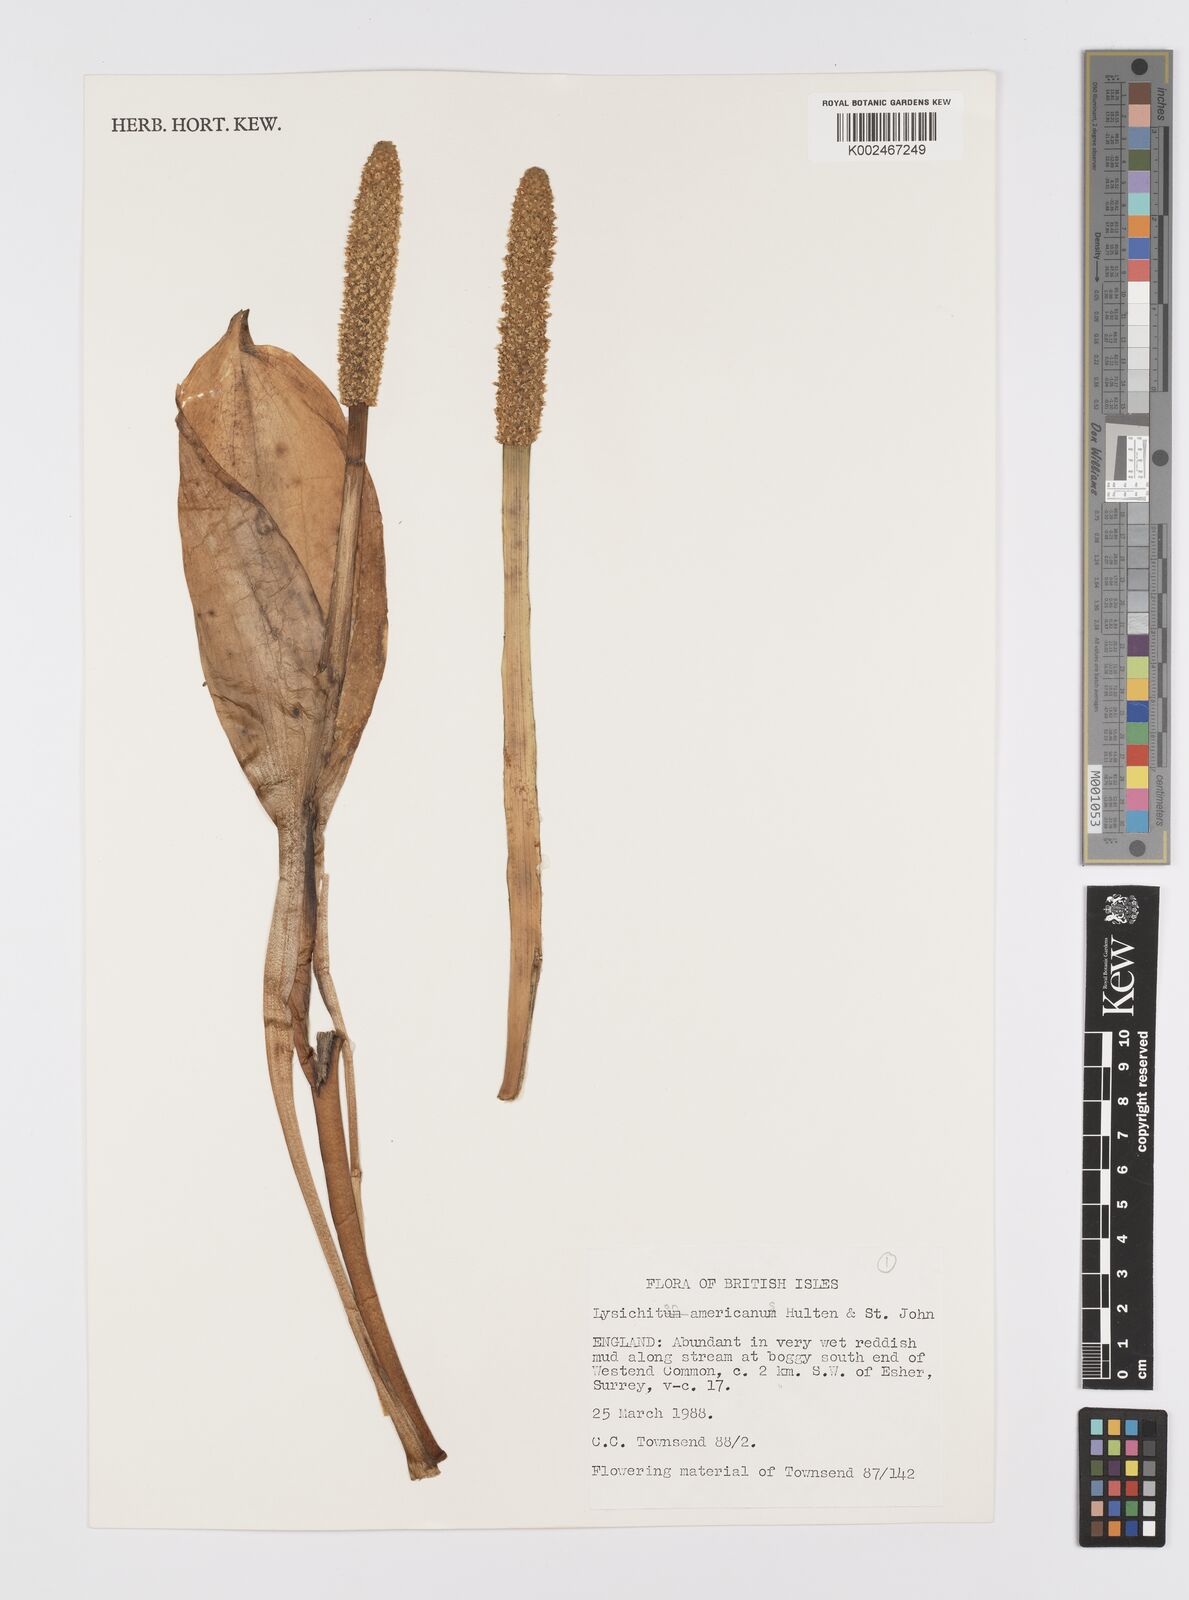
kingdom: Plantae
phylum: Tracheophyta
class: Liliopsida
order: Alismatales
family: Araceae
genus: Lysichiton
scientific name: Lysichiton americanus
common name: American skunk cabbage
